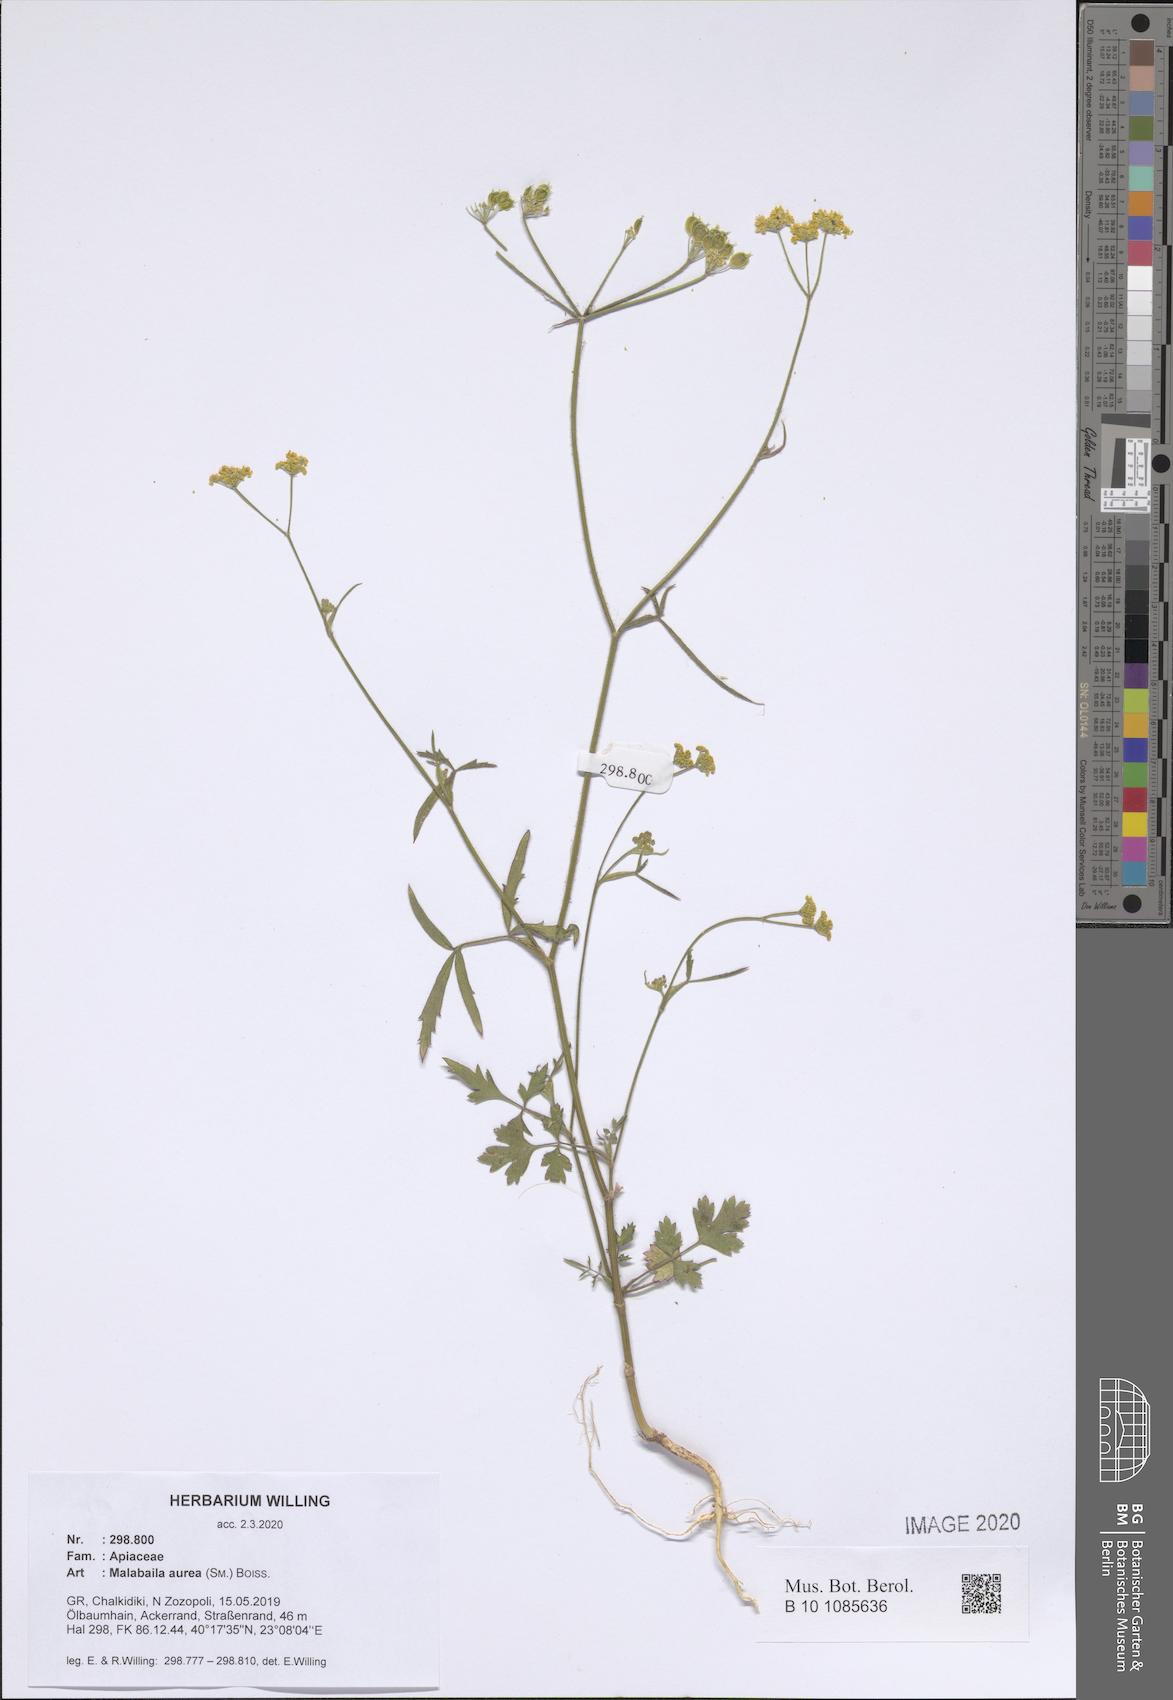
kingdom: Plantae
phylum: Tracheophyta
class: Magnoliopsida
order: Apiales
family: Apiaceae
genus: Leiotulus
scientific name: Leiotulus aureus
